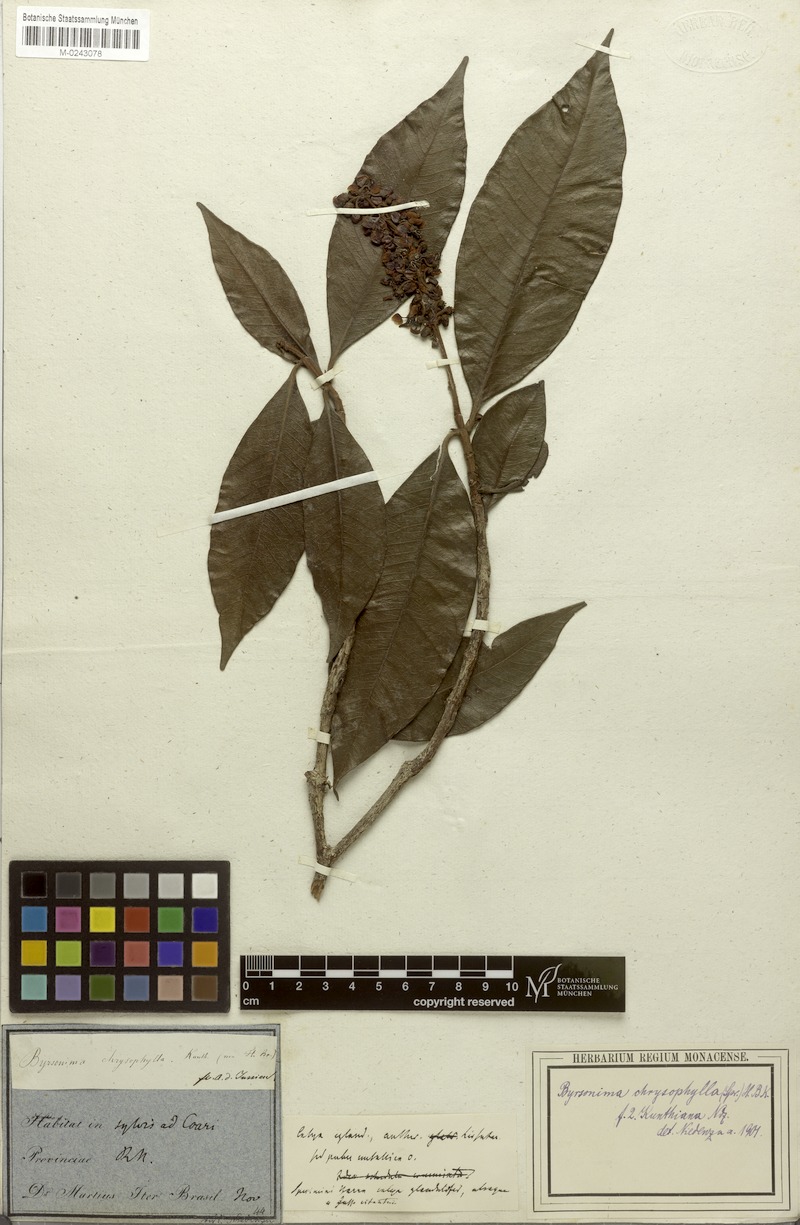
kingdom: Plantae
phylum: Tracheophyta
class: Magnoliopsida
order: Malpighiales
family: Malpighiaceae
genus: Byrsonima
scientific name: Byrsonima chrysophylla
